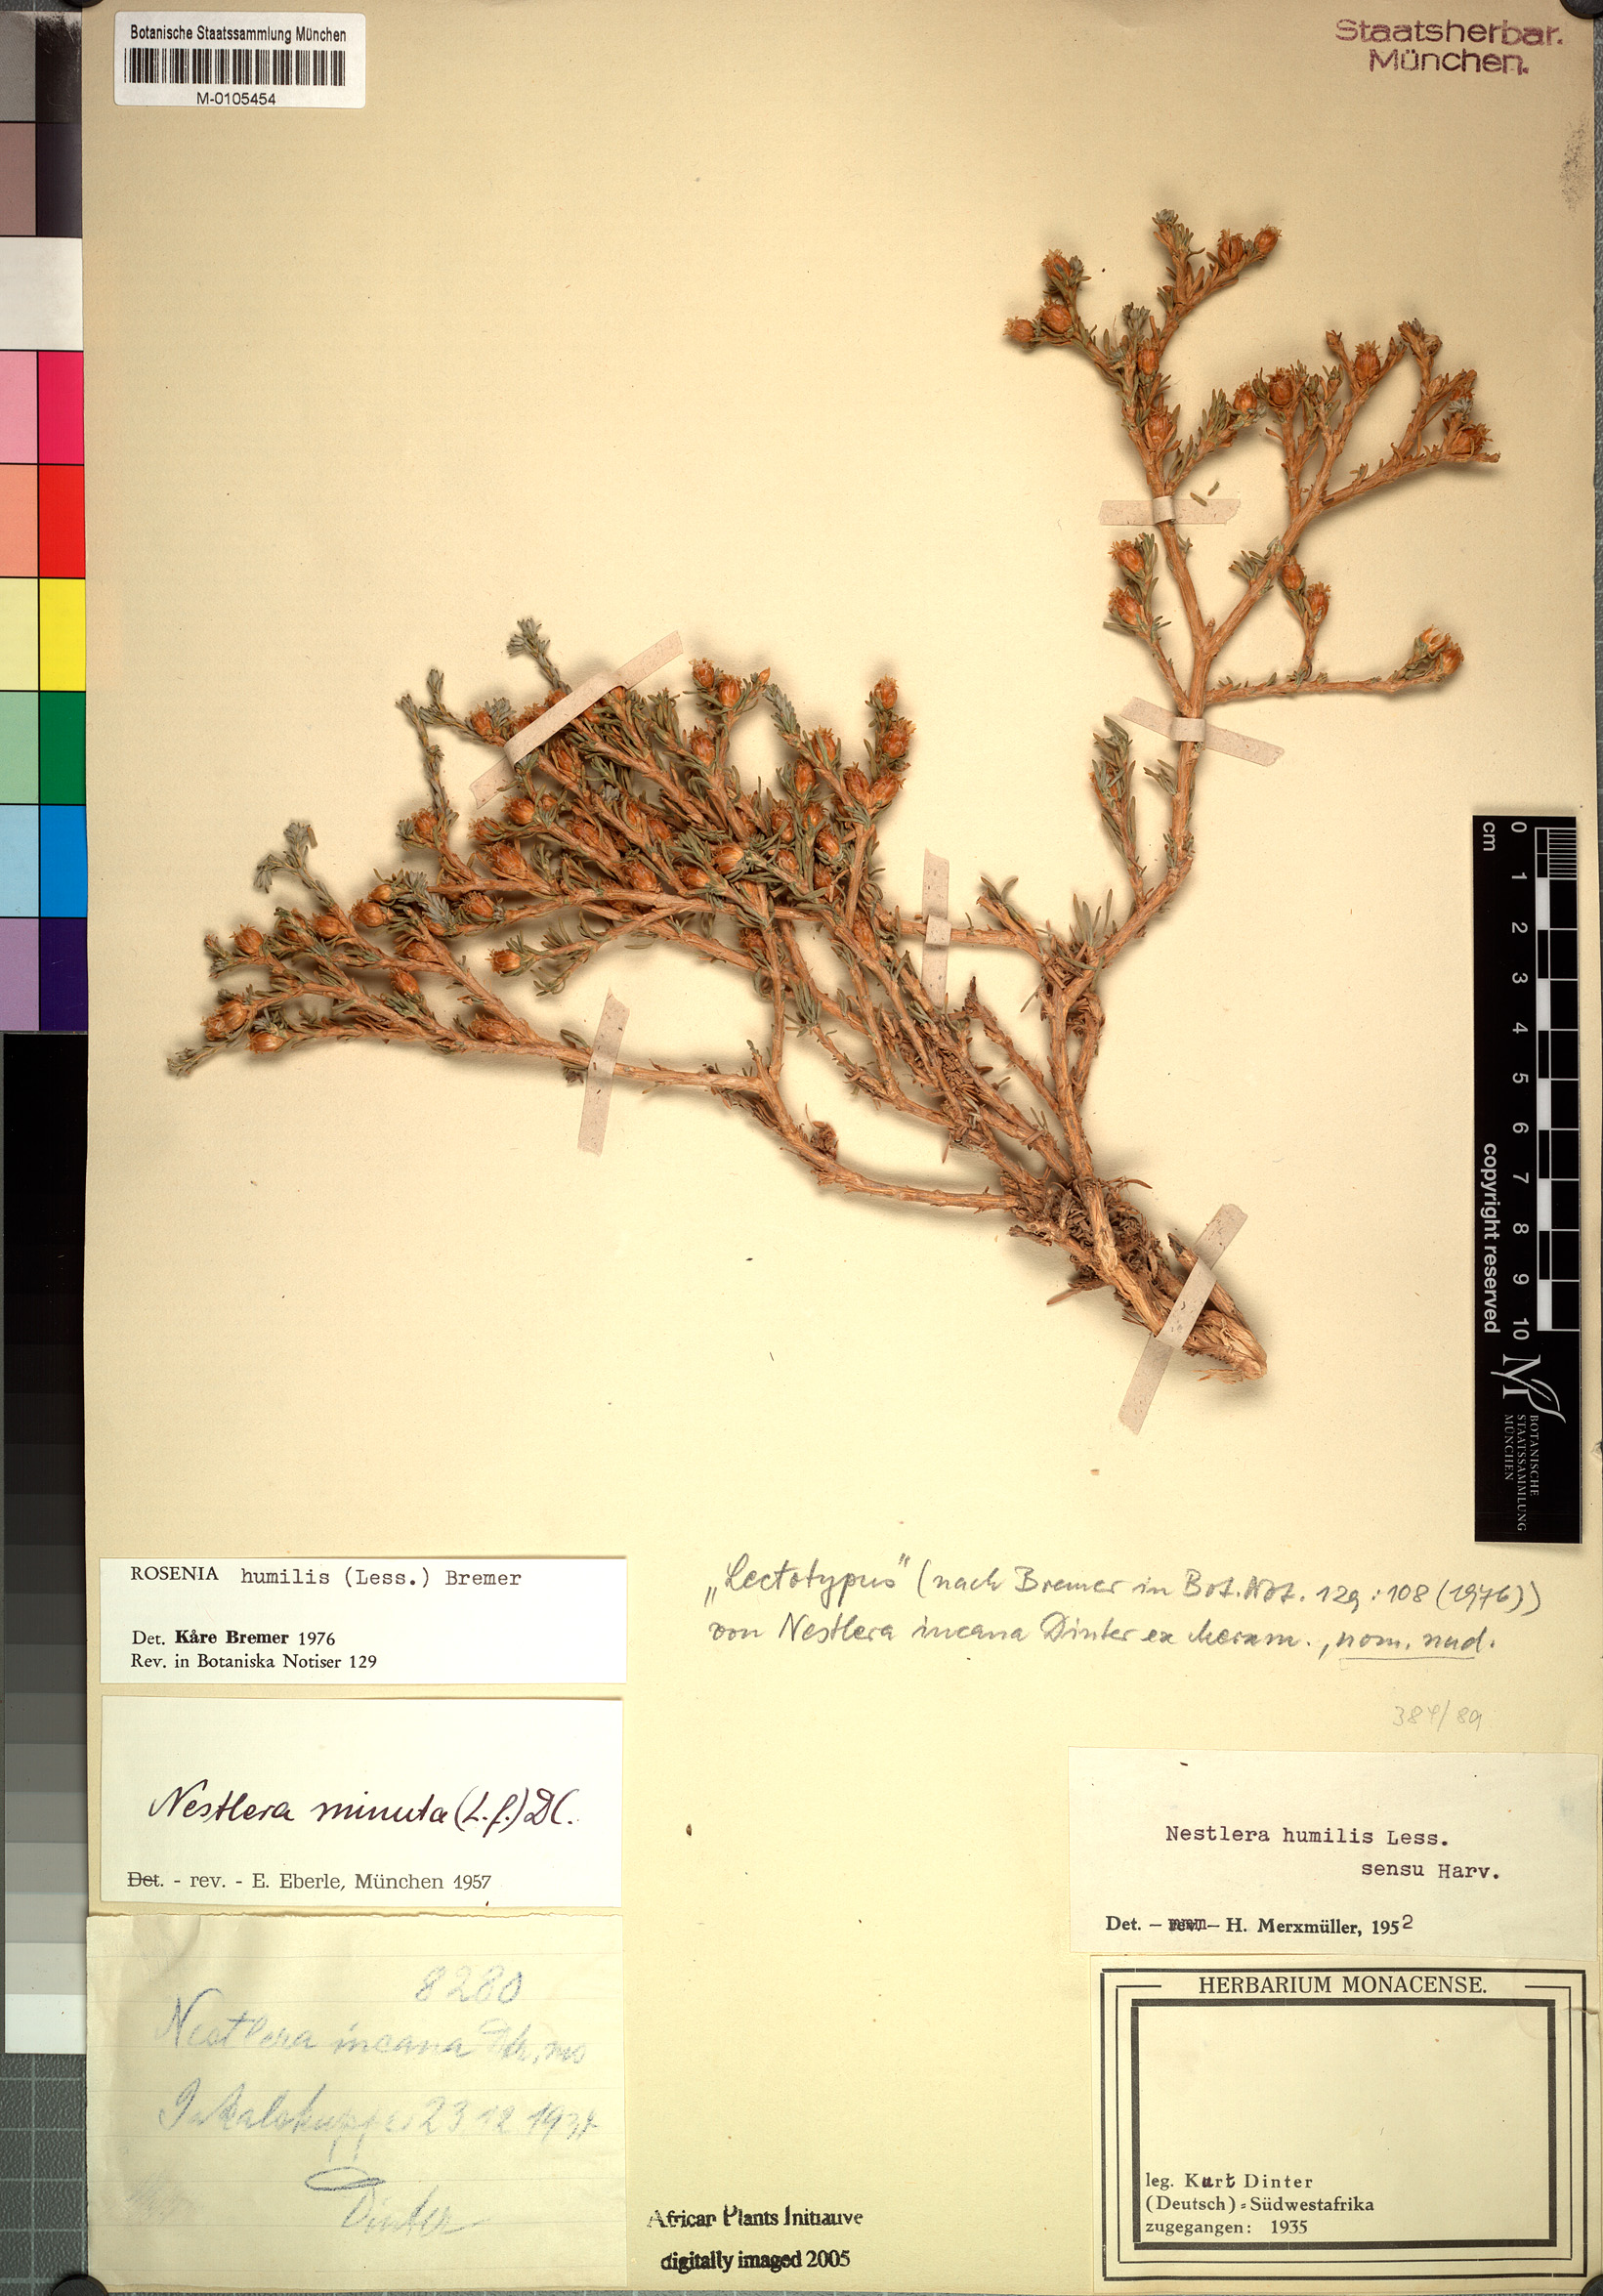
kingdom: Plantae
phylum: Tracheophyta
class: Magnoliopsida
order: Asterales
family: Asteraceae
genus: Oedera
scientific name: Oedera humilis
